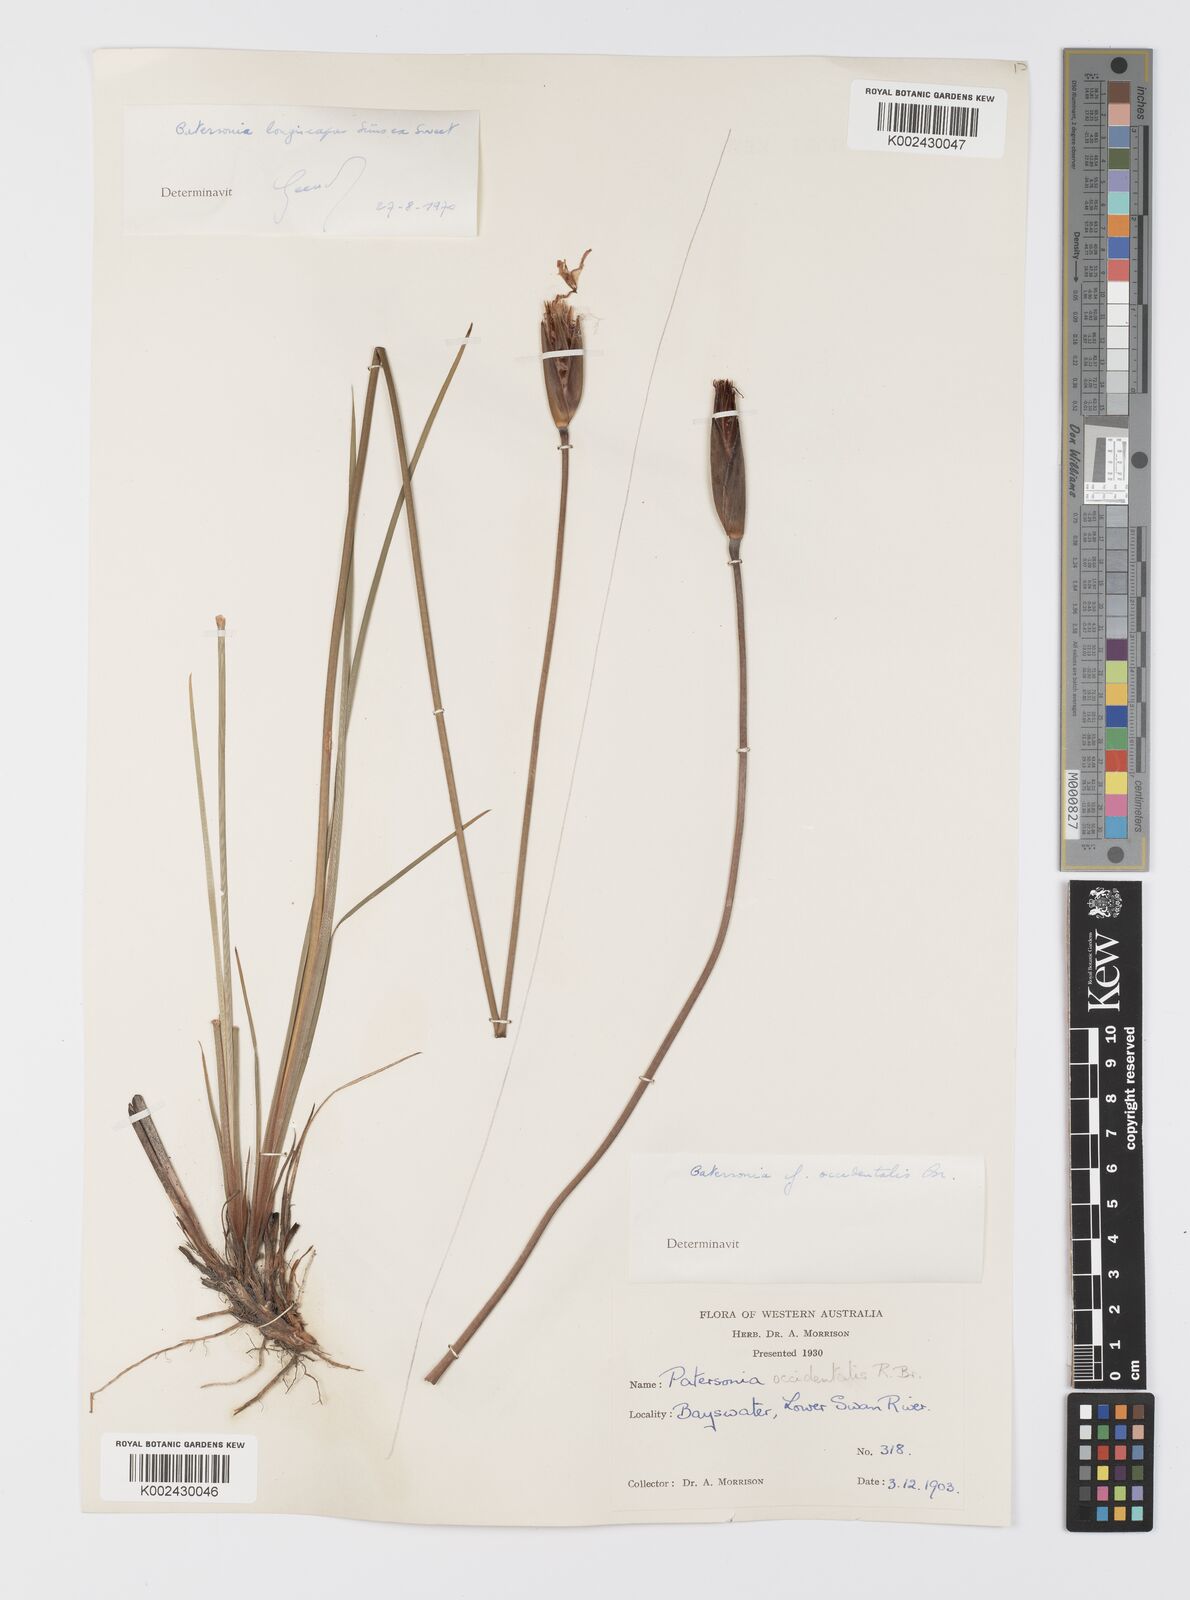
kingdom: Plantae
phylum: Tracheophyta
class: Liliopsida
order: Asparagales
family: Iridaceae
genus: Patersonia
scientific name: Patersonia occidentalis
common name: Long purple-flag
